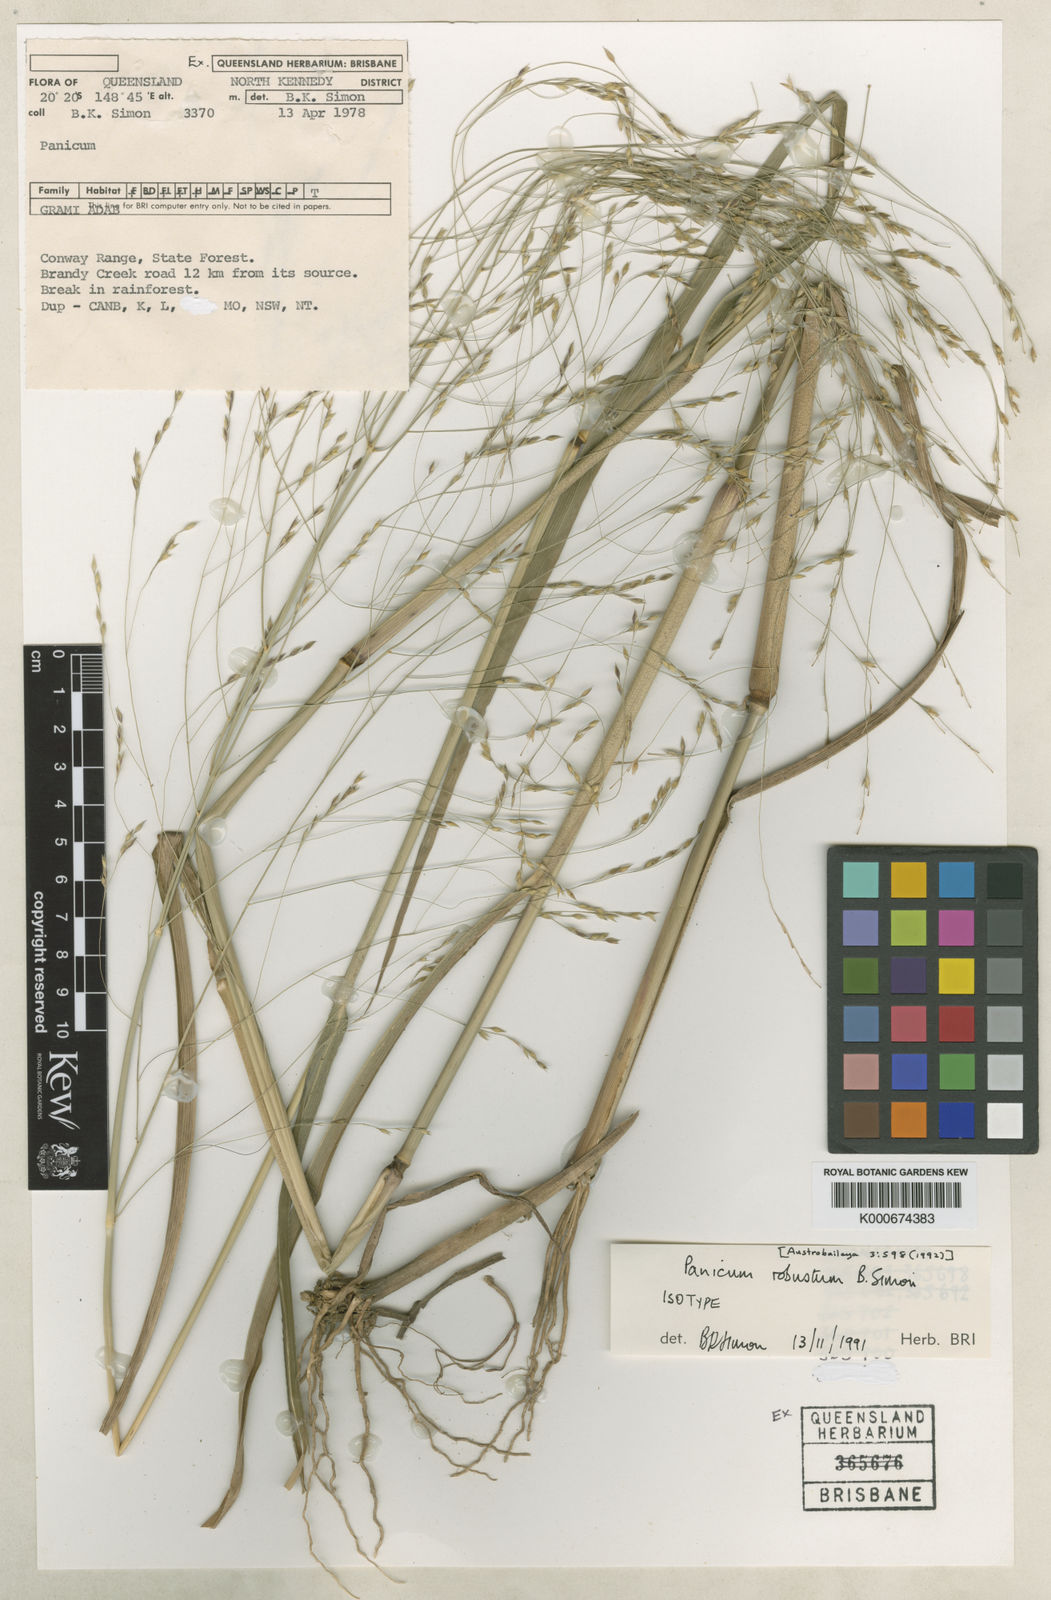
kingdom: Plantae
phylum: Tracheophyta
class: Liliopsida
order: Poales
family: Poaceae
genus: Panicum
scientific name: Panicum trachyrhachis
